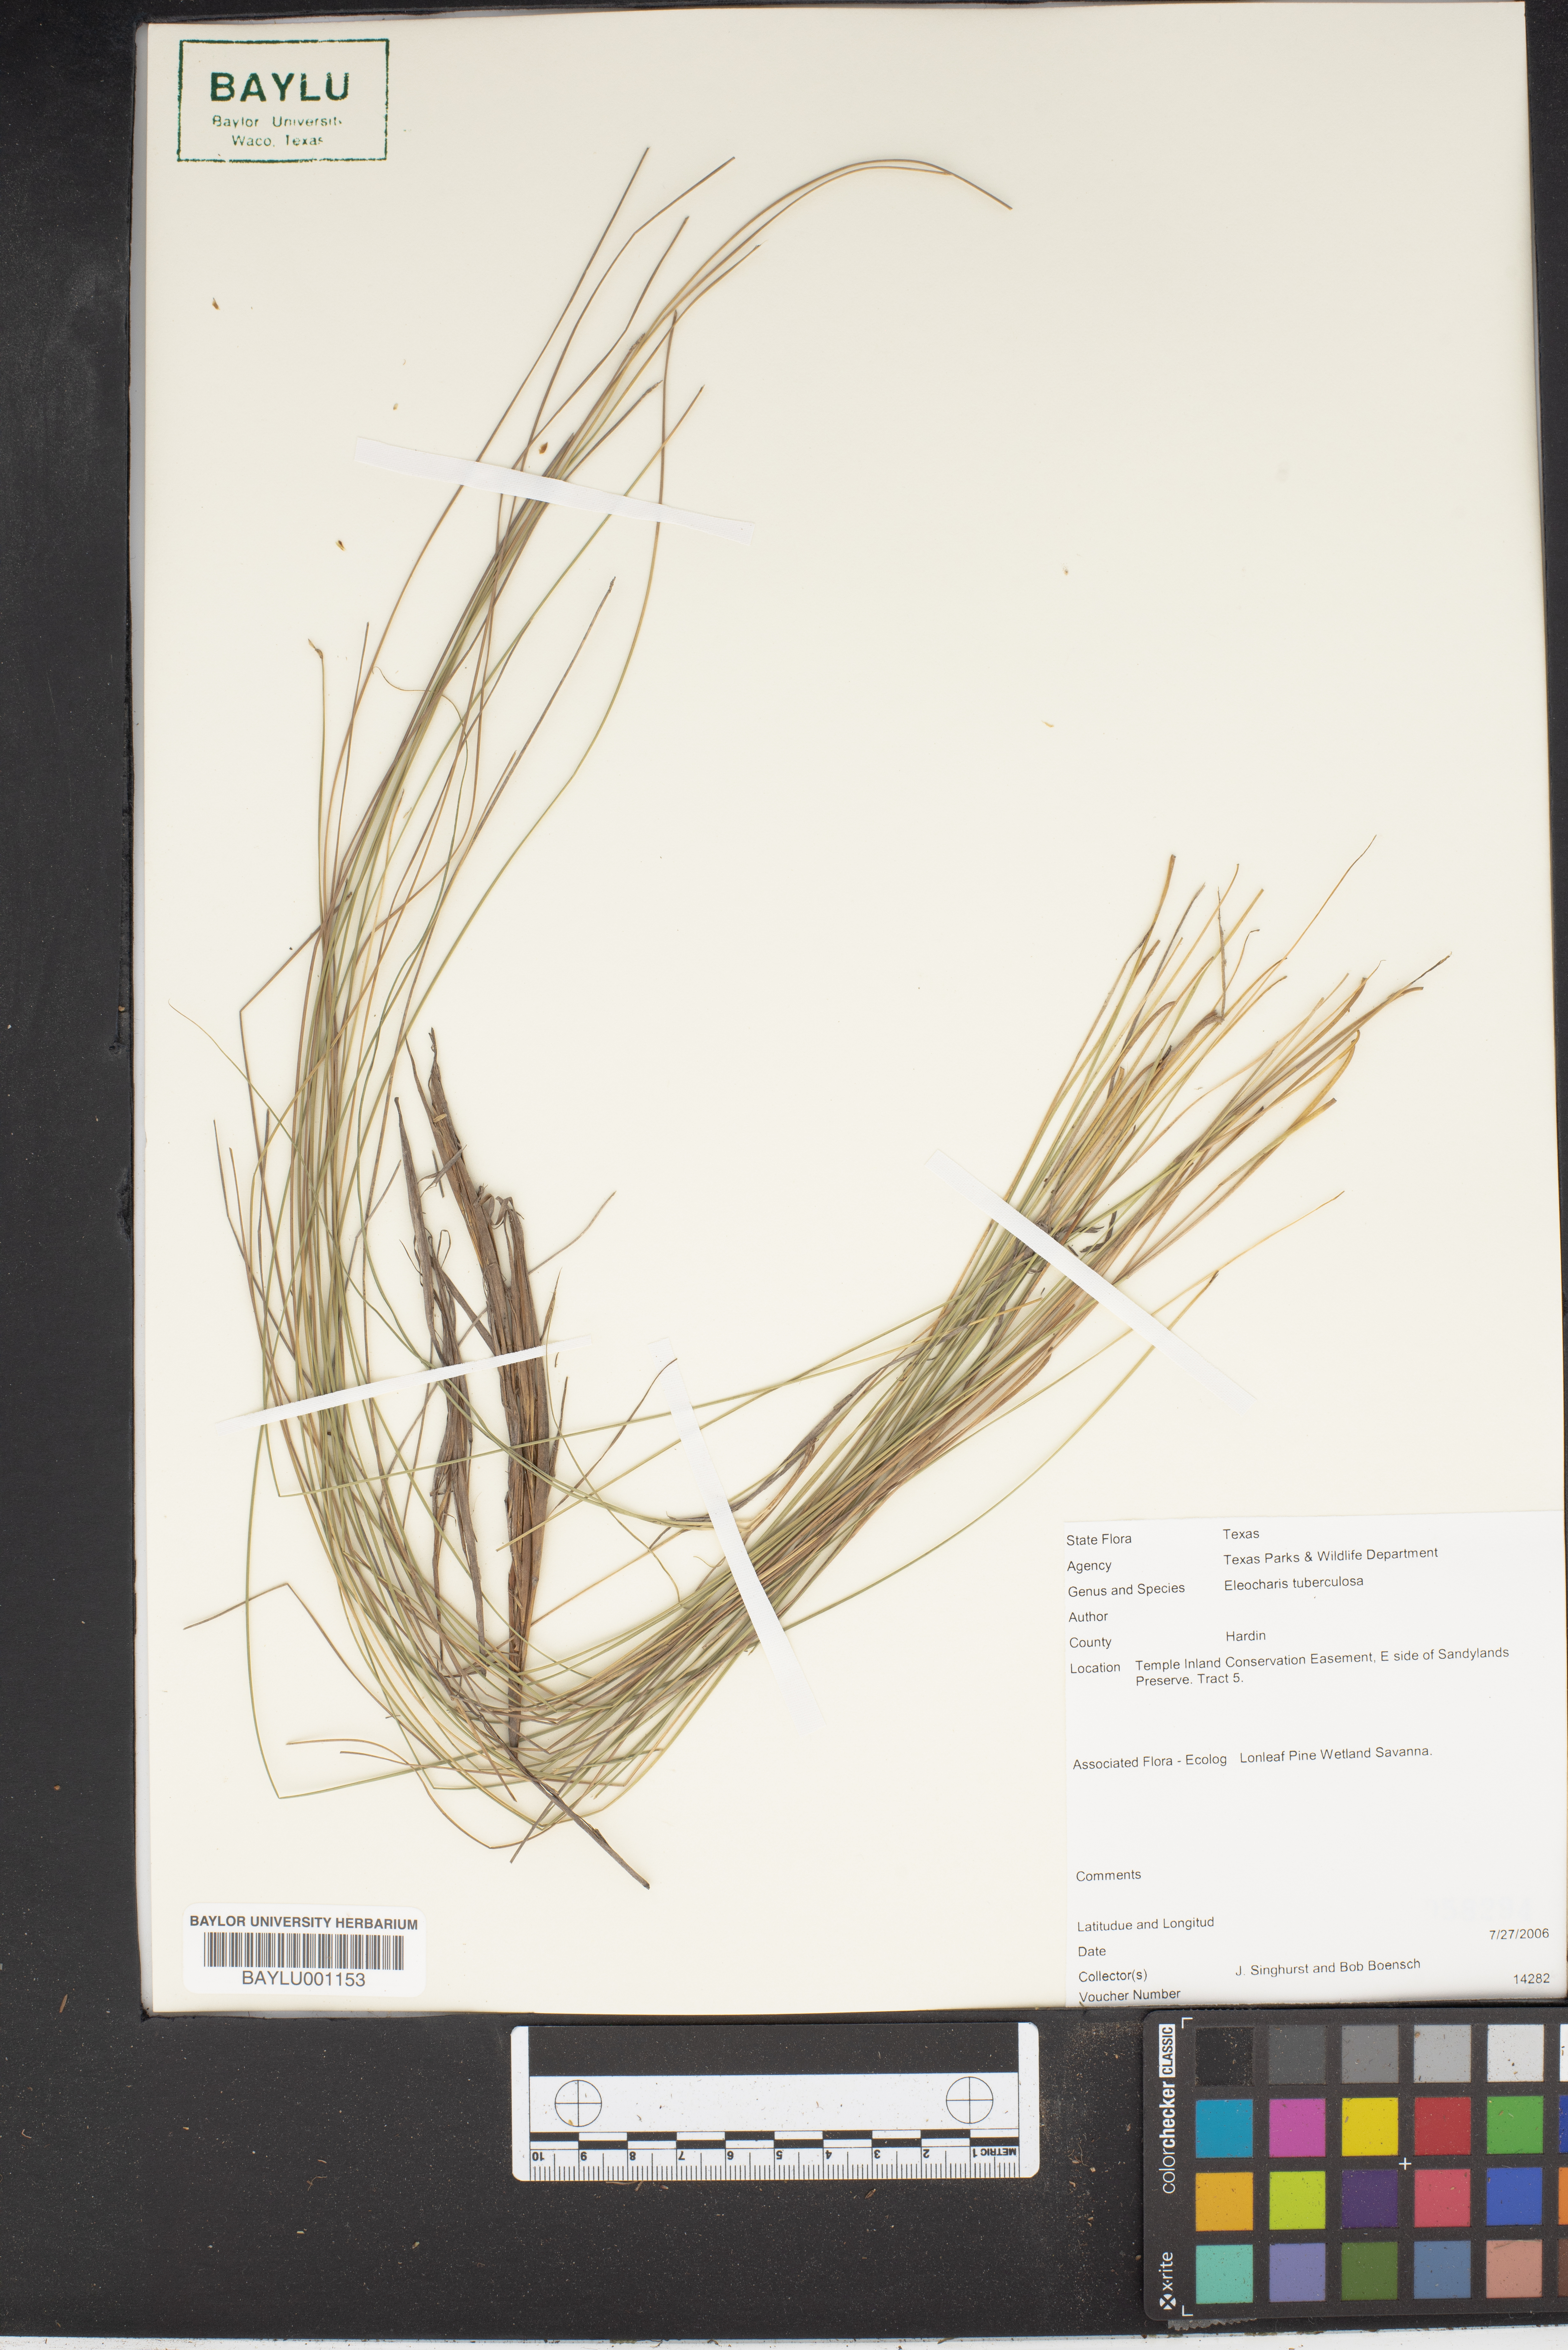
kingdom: Plantae
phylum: Tracheophyta
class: Liliopsida
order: Poales
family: Cyperaceae
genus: Eleocharis
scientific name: Eleocharis tuberculosa
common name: Cone-cup spikerush
